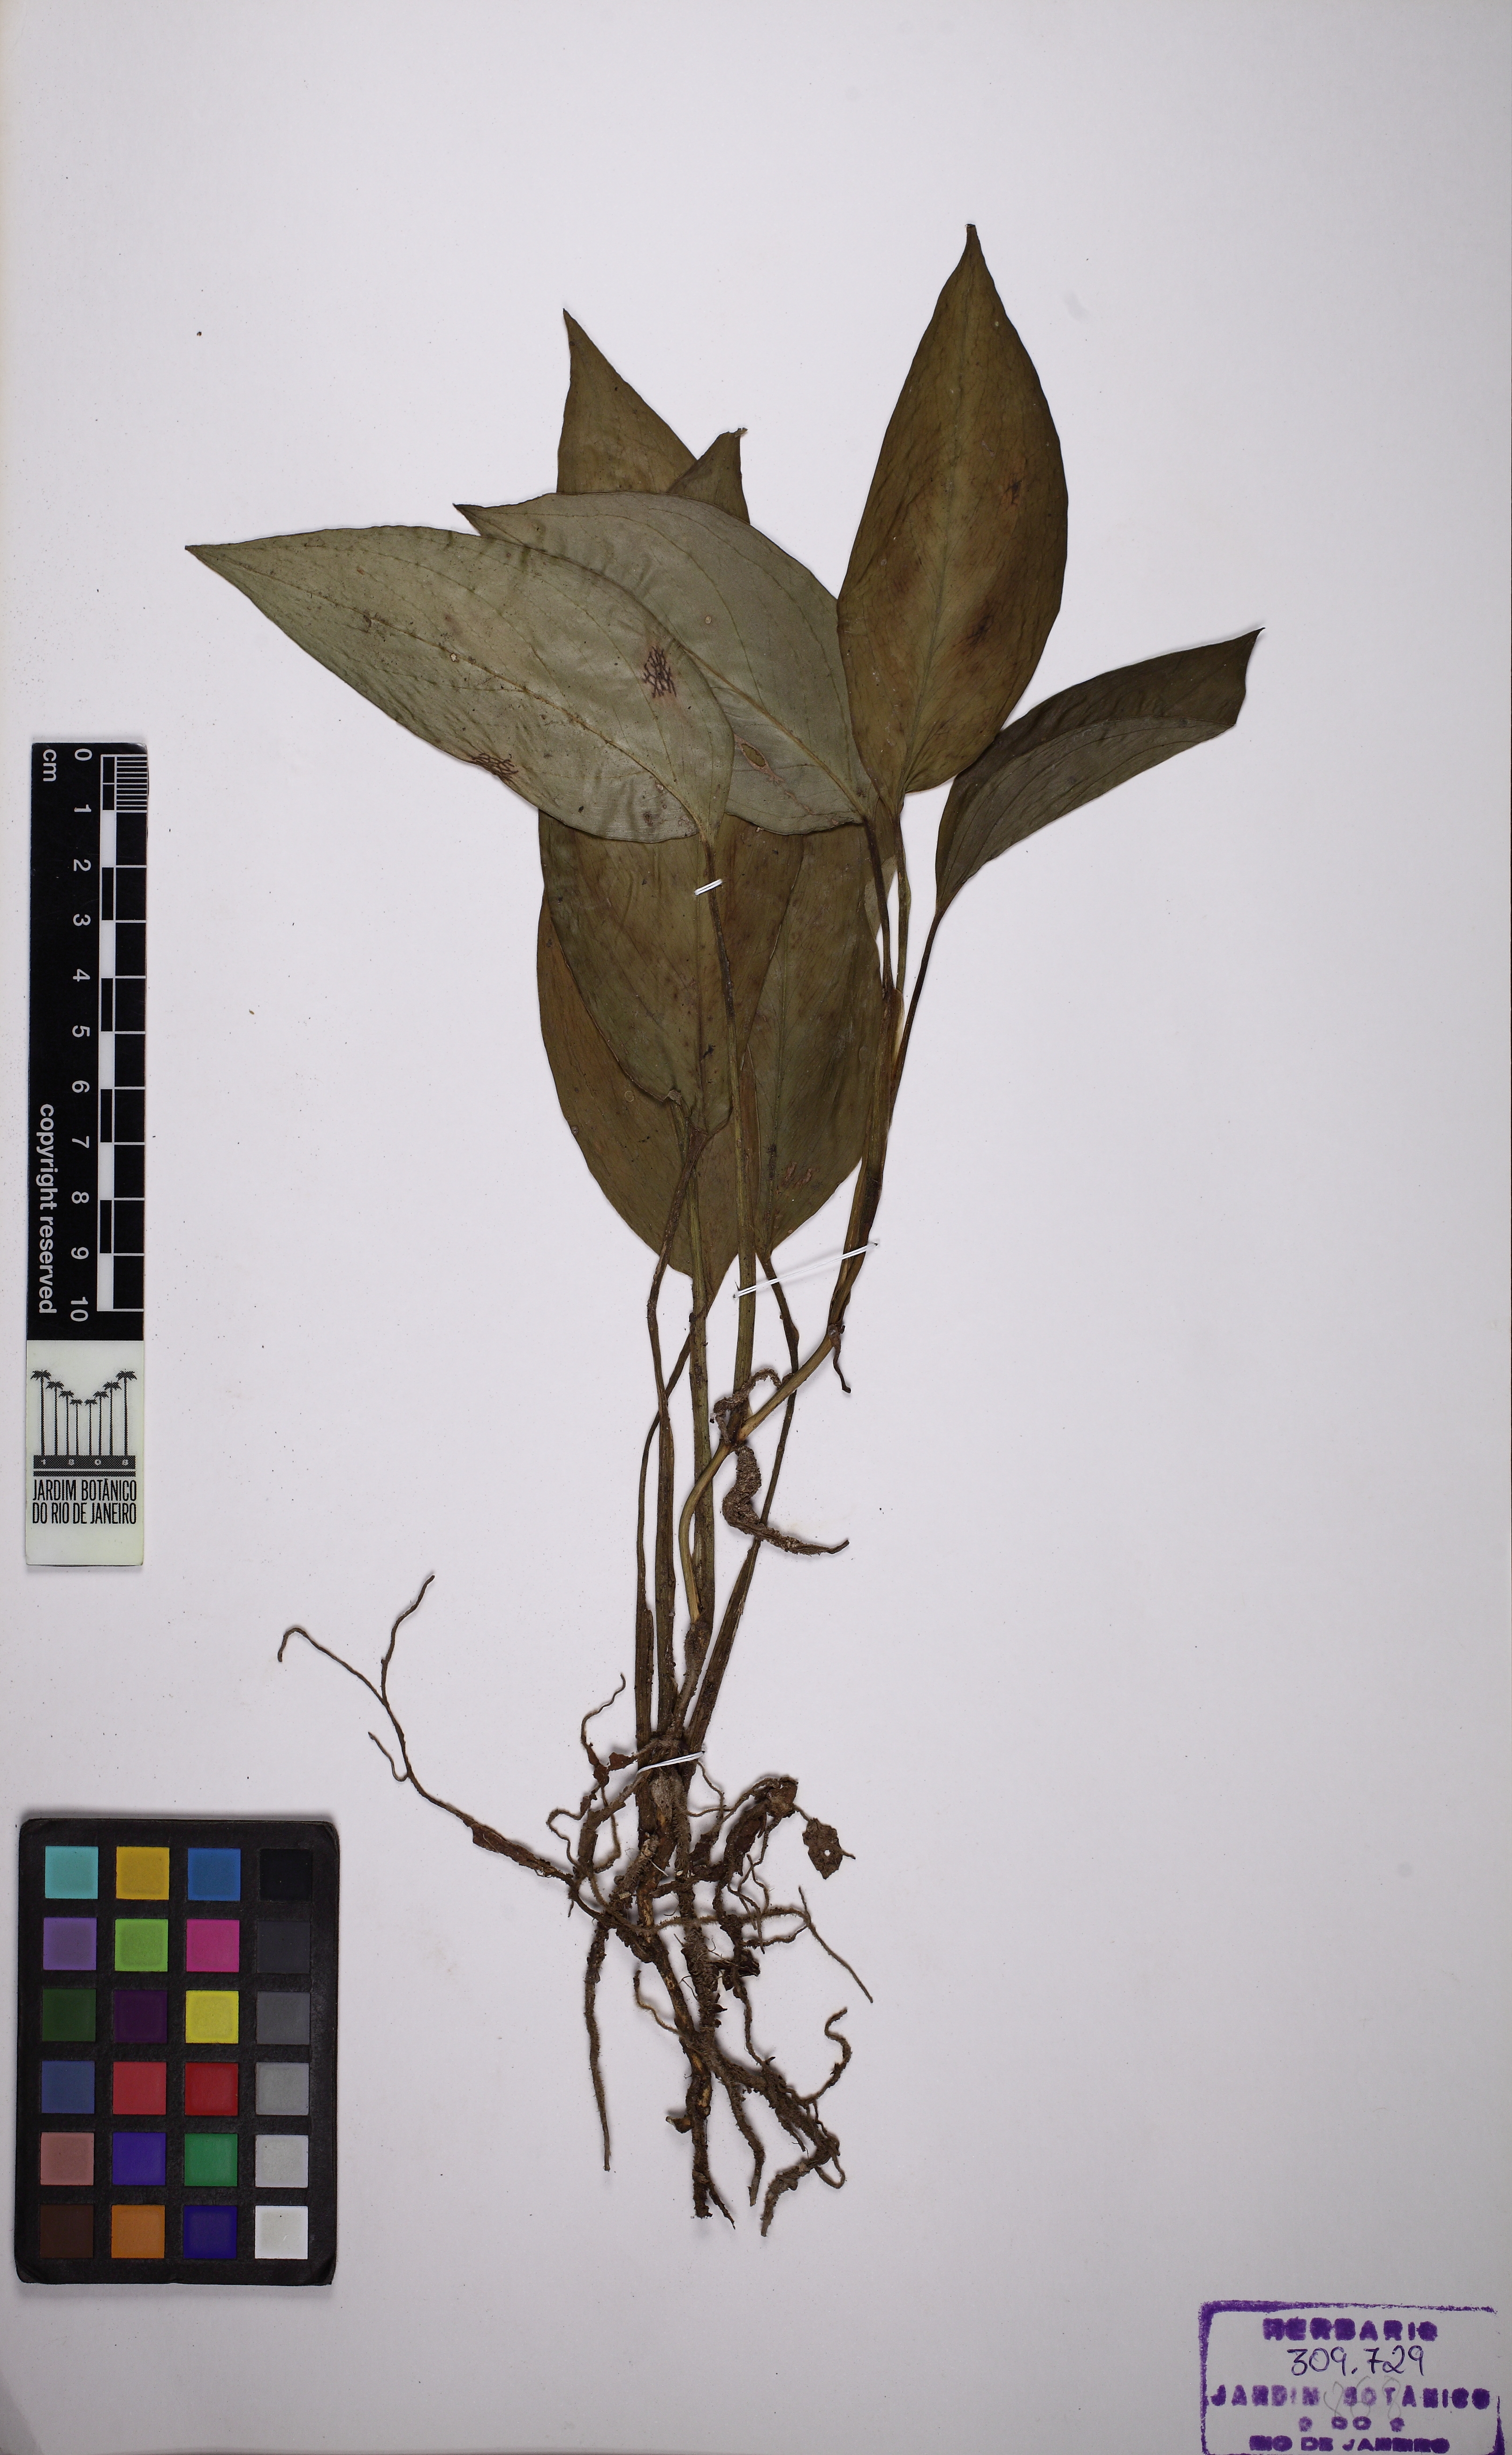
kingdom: Plantae
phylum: Tracheophyta
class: Liliopsida
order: Alismatales
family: Araceae
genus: Monstera
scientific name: Monstera adansonii
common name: Tarovine
